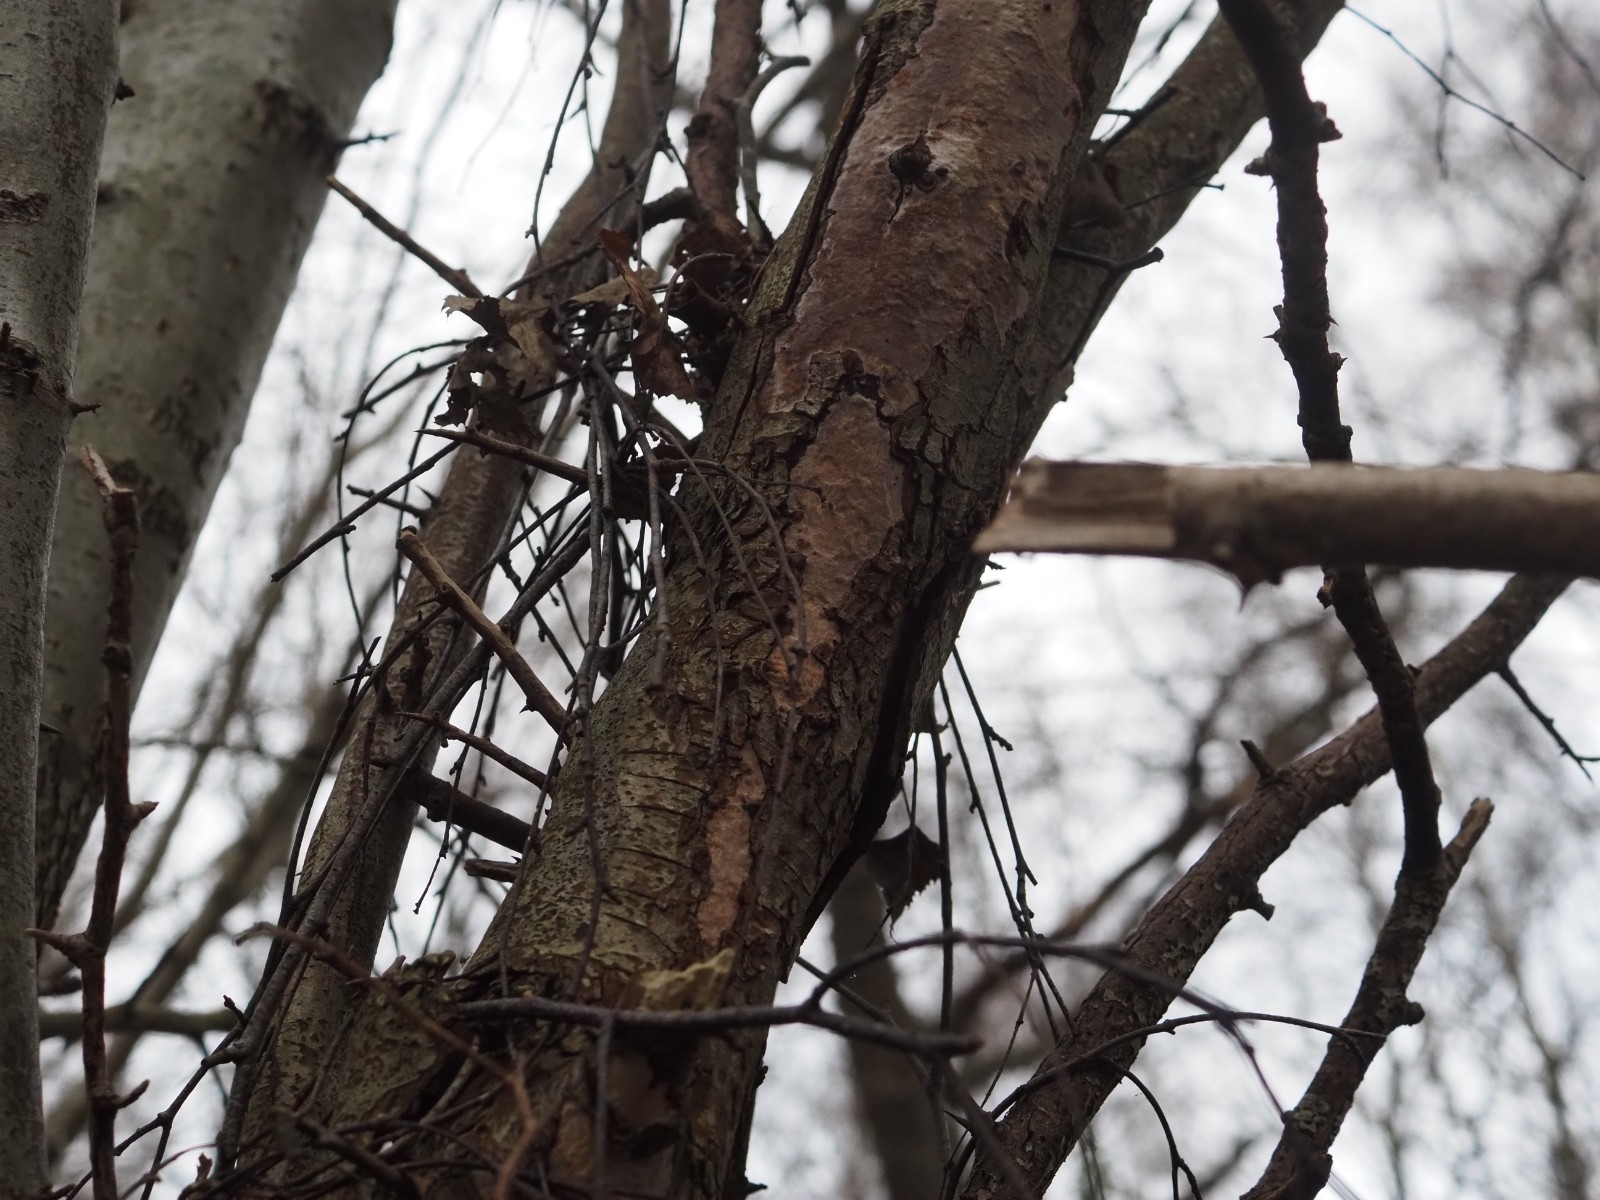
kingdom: Fungi
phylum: Basidiomycota
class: Agaricomycetes
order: Corticiales
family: Vuilleminiaceae
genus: Vuilleminia
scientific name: Vuilleminia cystidiata
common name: tjørne-barksprænger
